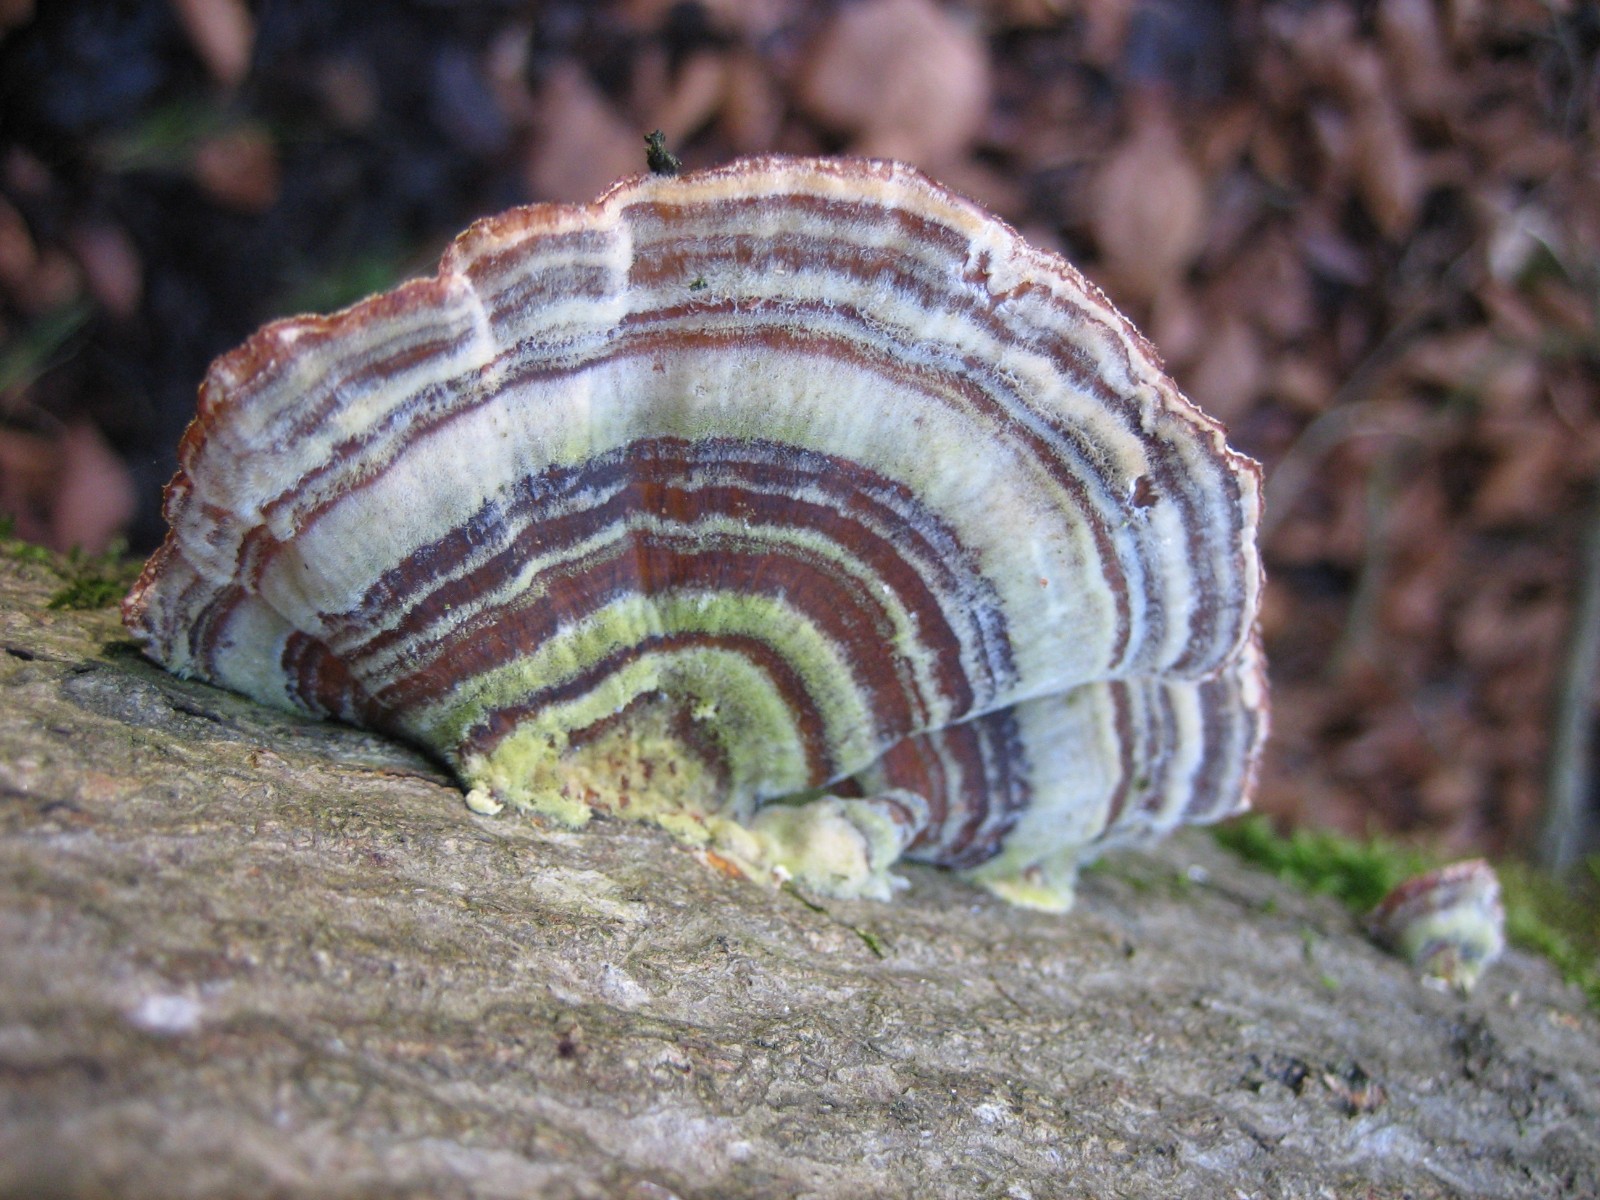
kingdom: Fungi
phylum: Basidiomycota
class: Agaricomycetes
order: Polyporales
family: Polyporaceae
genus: Trametes
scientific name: Trametes versicolor
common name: broget læderporesvamp
